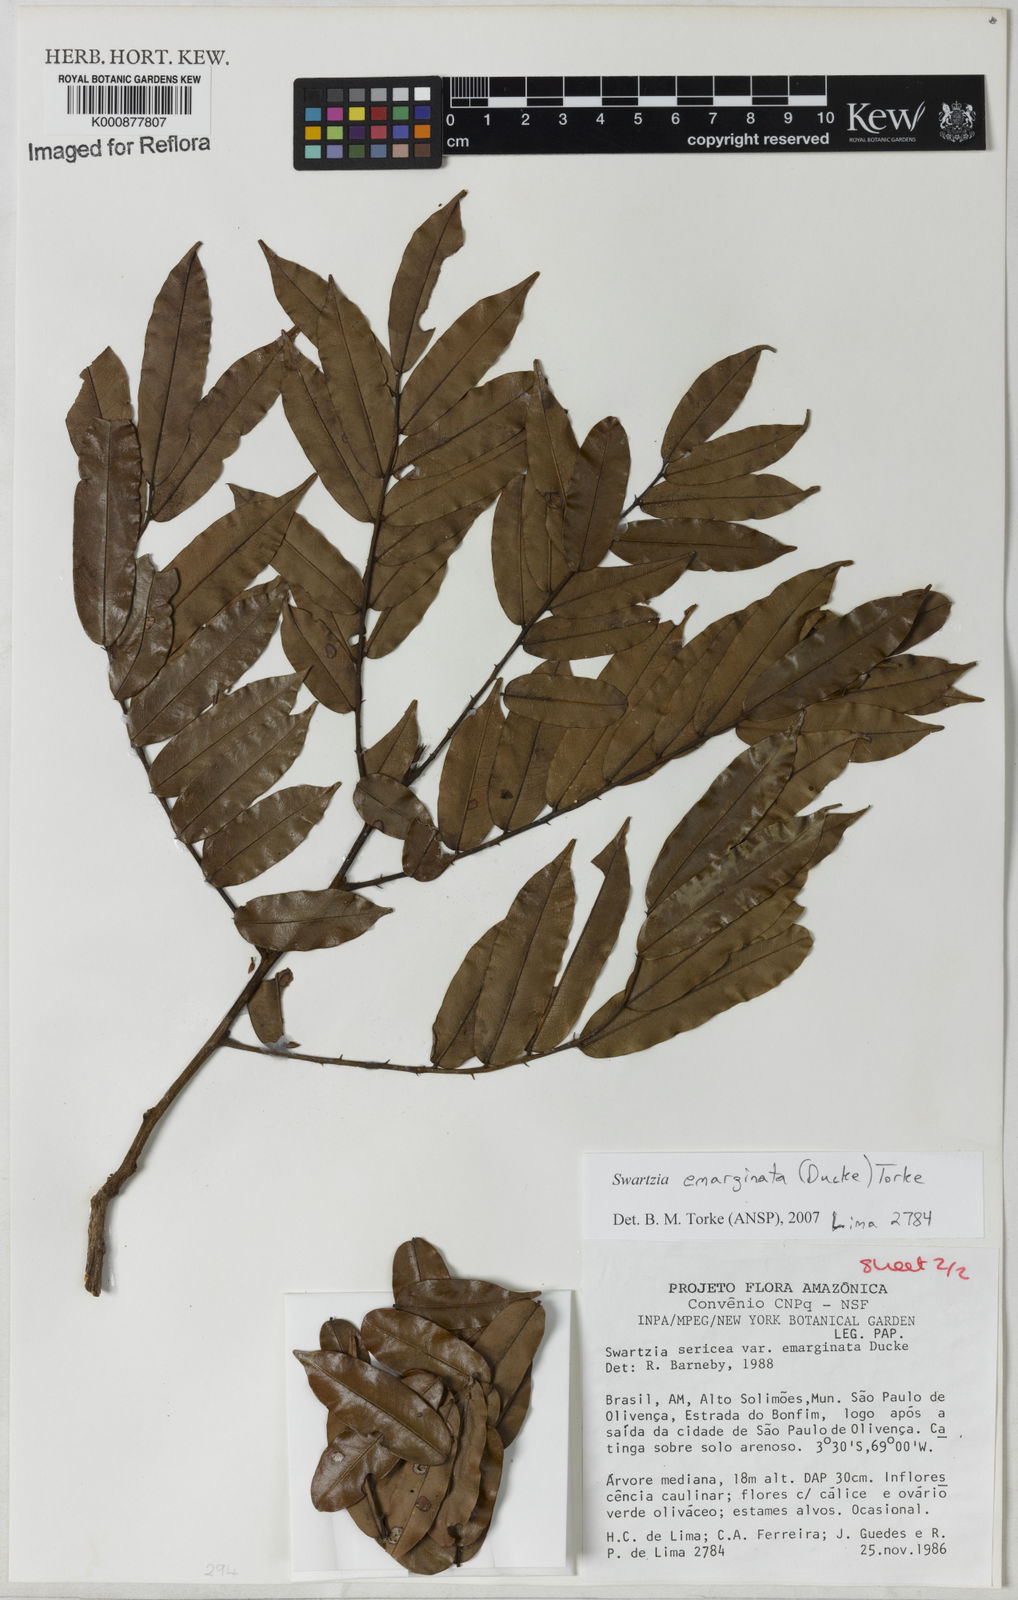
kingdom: Plantae
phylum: Tracheophyta
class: Magnoliopsida
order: Fabales
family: Fabaceae
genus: Swartzia
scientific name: Swartzia emarginata
